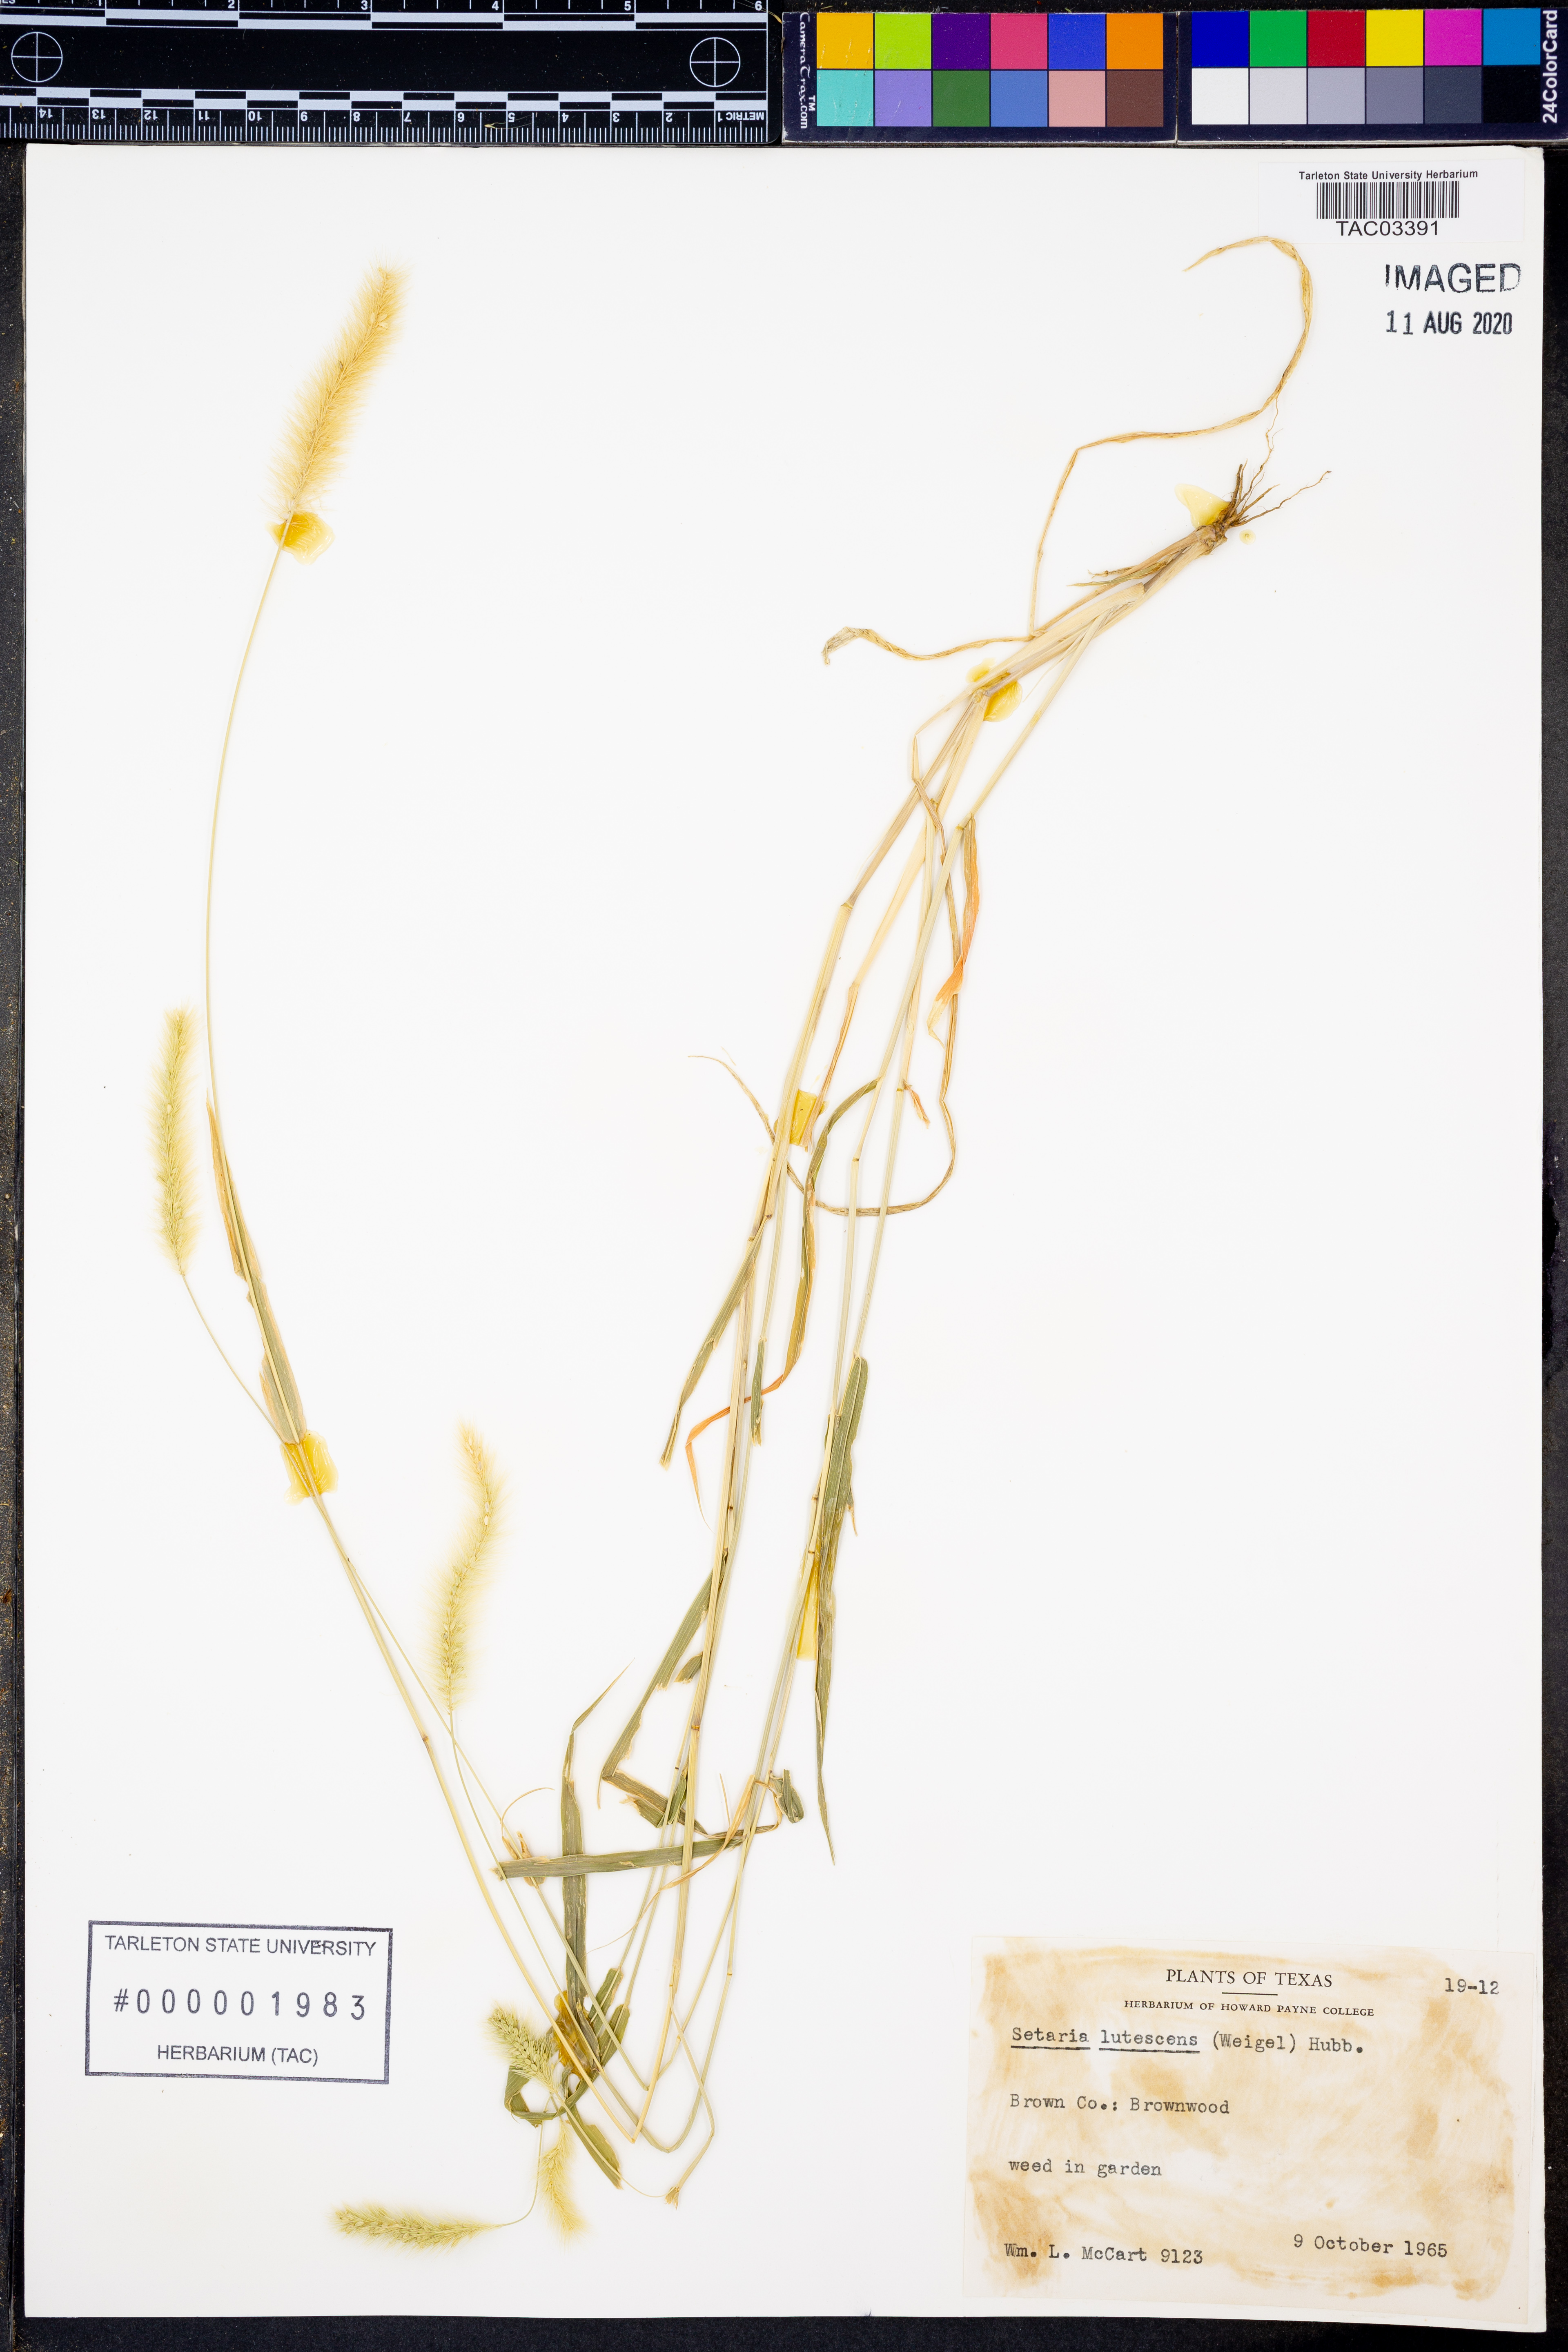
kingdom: Plantae
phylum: Tracheophyta
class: Liliopsida
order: Poales
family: Poaceae
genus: Cenchrus
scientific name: Cenchrus americanus
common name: Pearl millet
